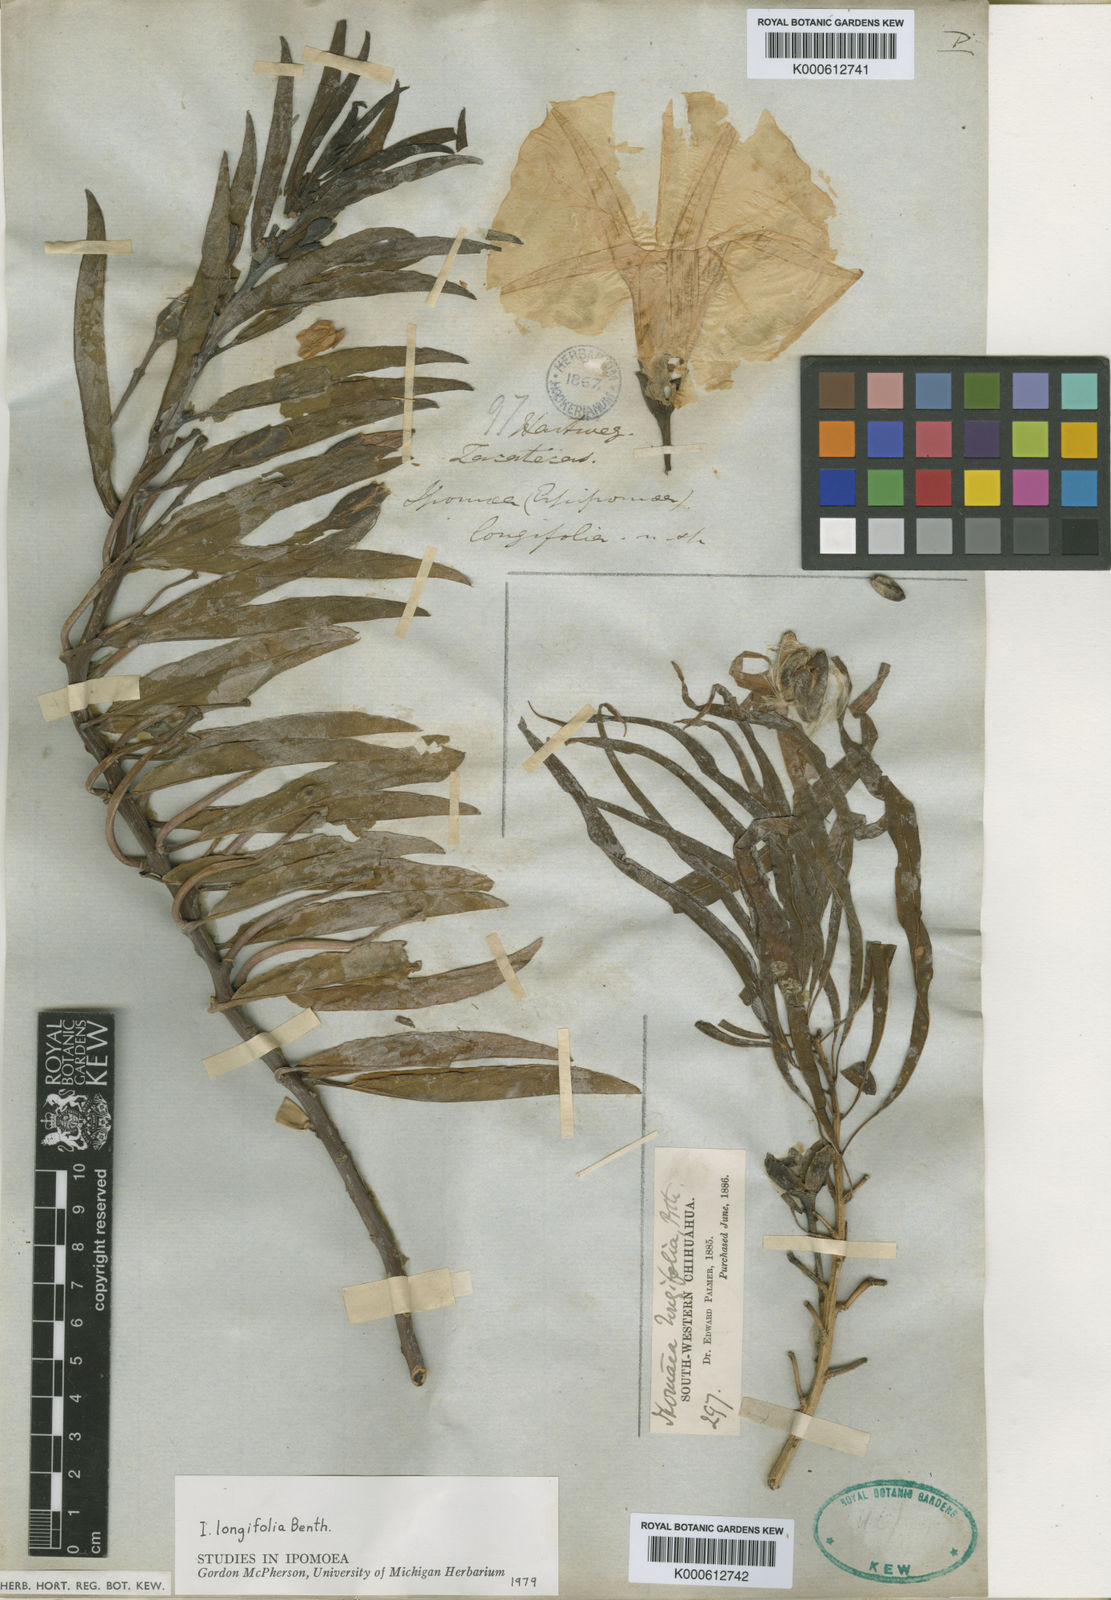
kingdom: Plantae
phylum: Tracheophyta
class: Magnoliopsida
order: Solanales
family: Convolvulaceae
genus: Ipomoea
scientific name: Ipomoea longifolia
